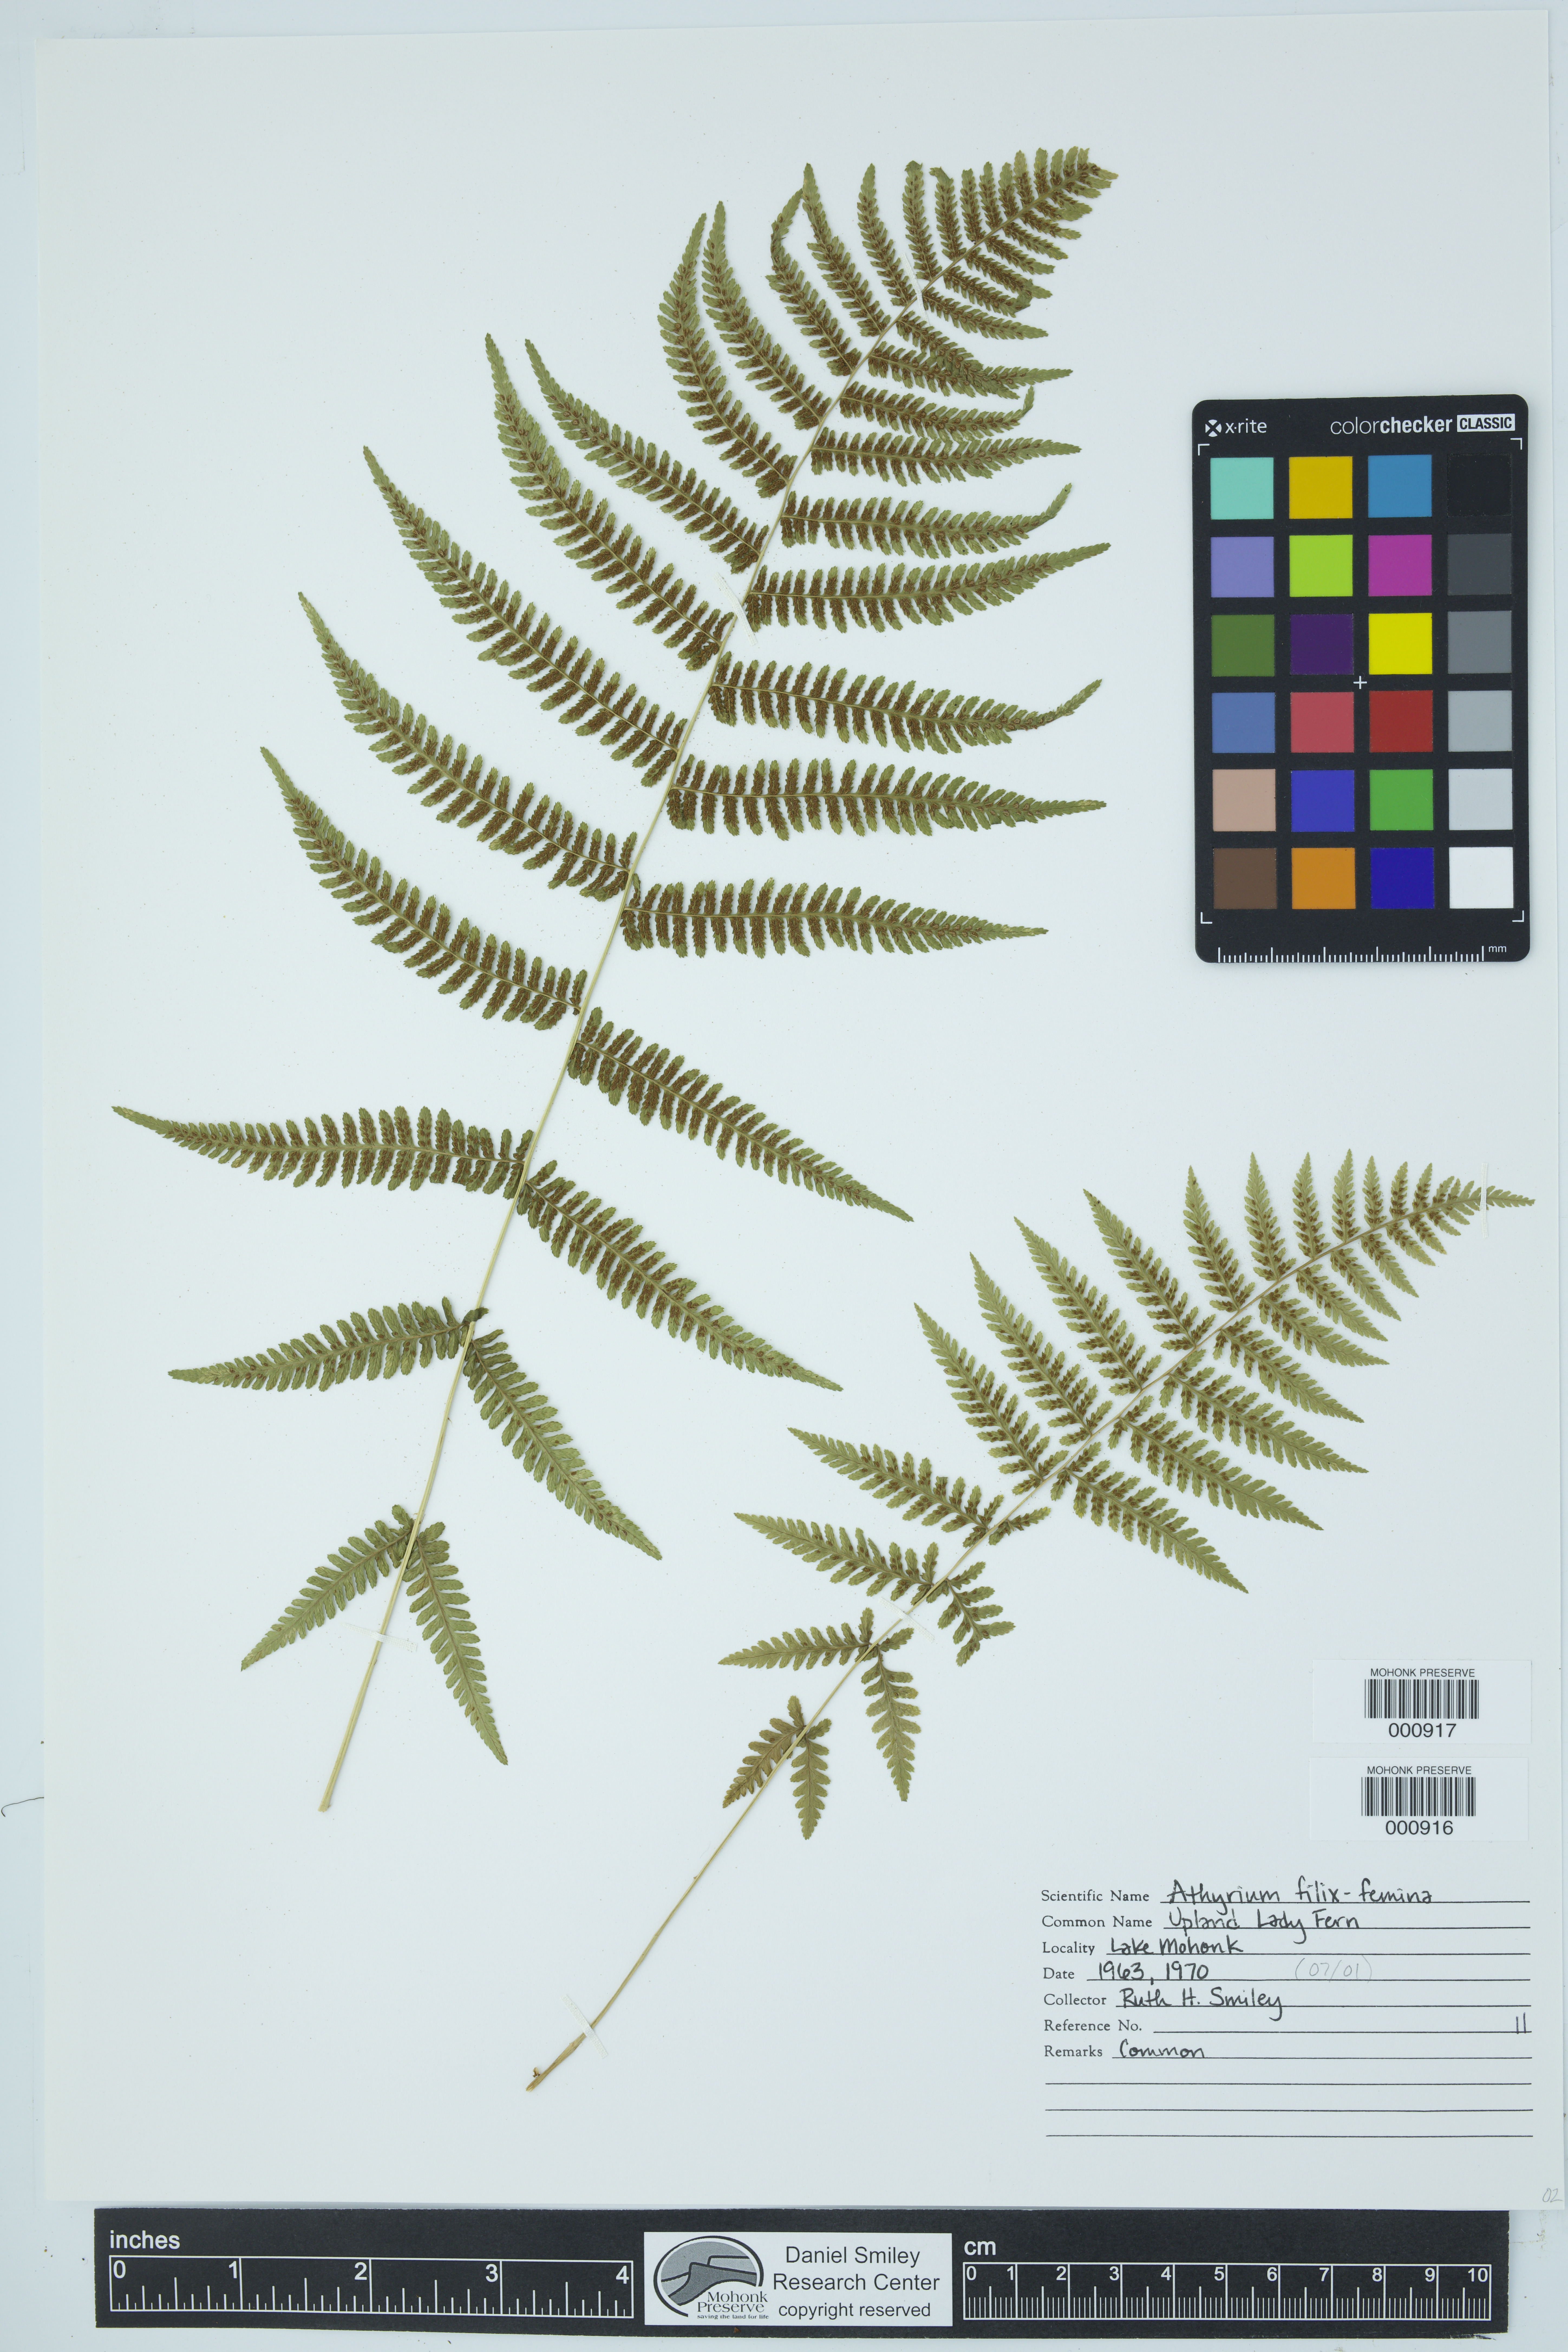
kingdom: Plantae
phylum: Tracheophyta
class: Polypodiopsida
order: Polypodiales
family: Athyriaceae
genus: Athyrium
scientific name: Athyrium filix-femina
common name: Lady fern
